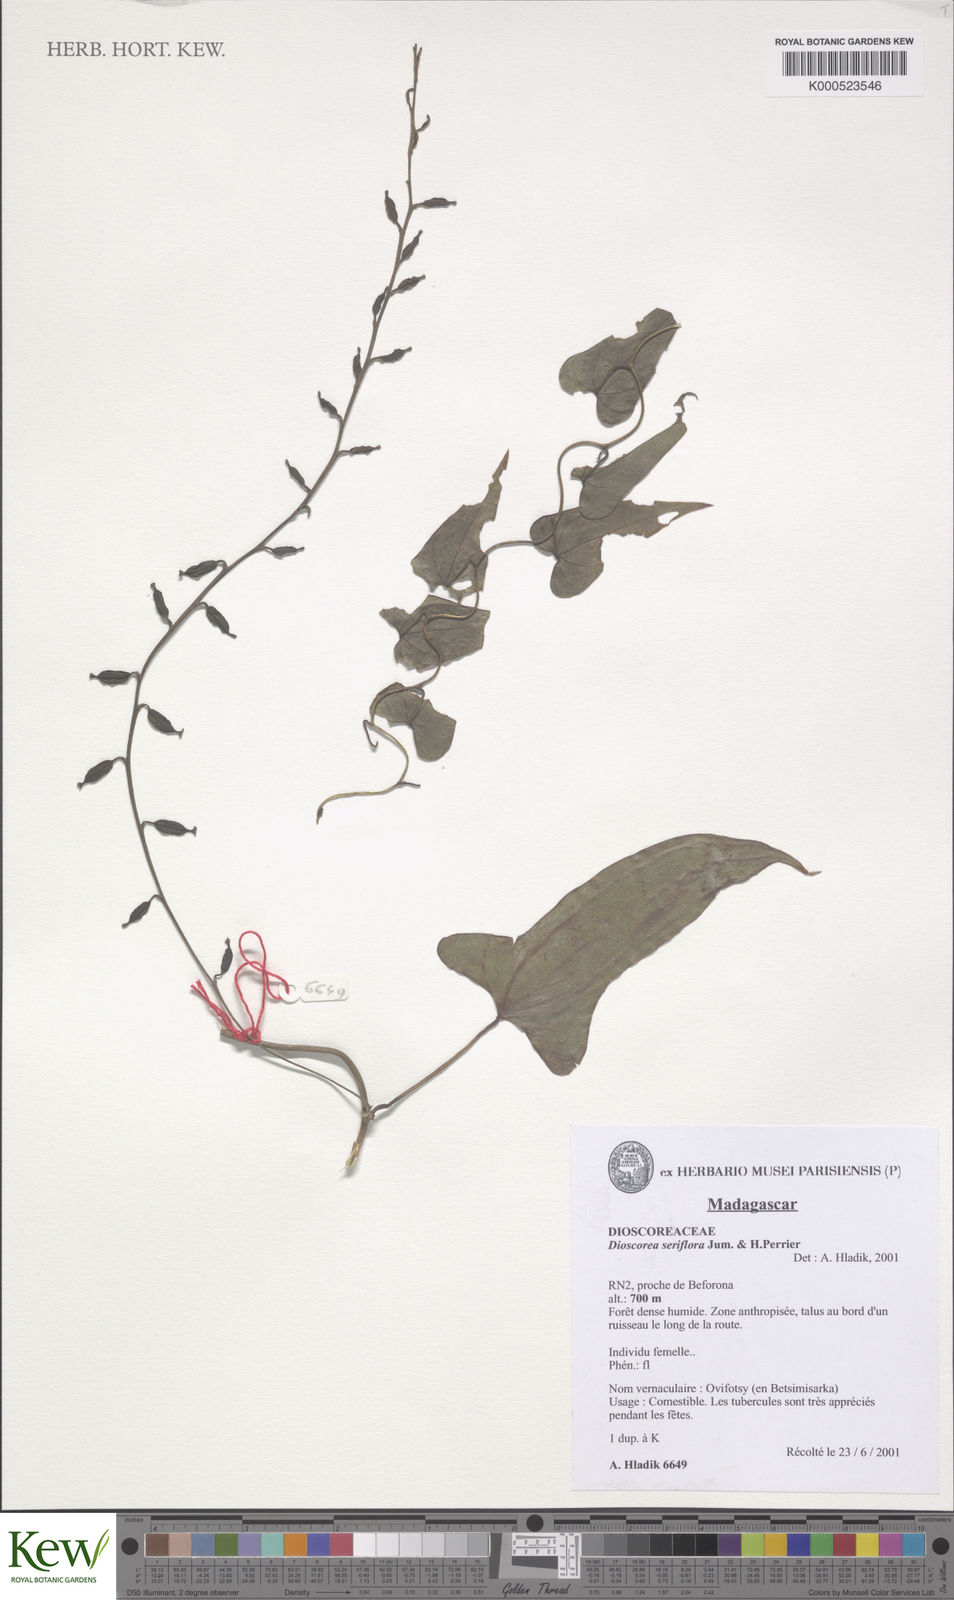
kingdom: Plantae
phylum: Tracheophyta
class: Liliopsida
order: Dioscoreales
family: Dioscoreaceae
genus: Dioscorea
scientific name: Dioscorea seriflora
